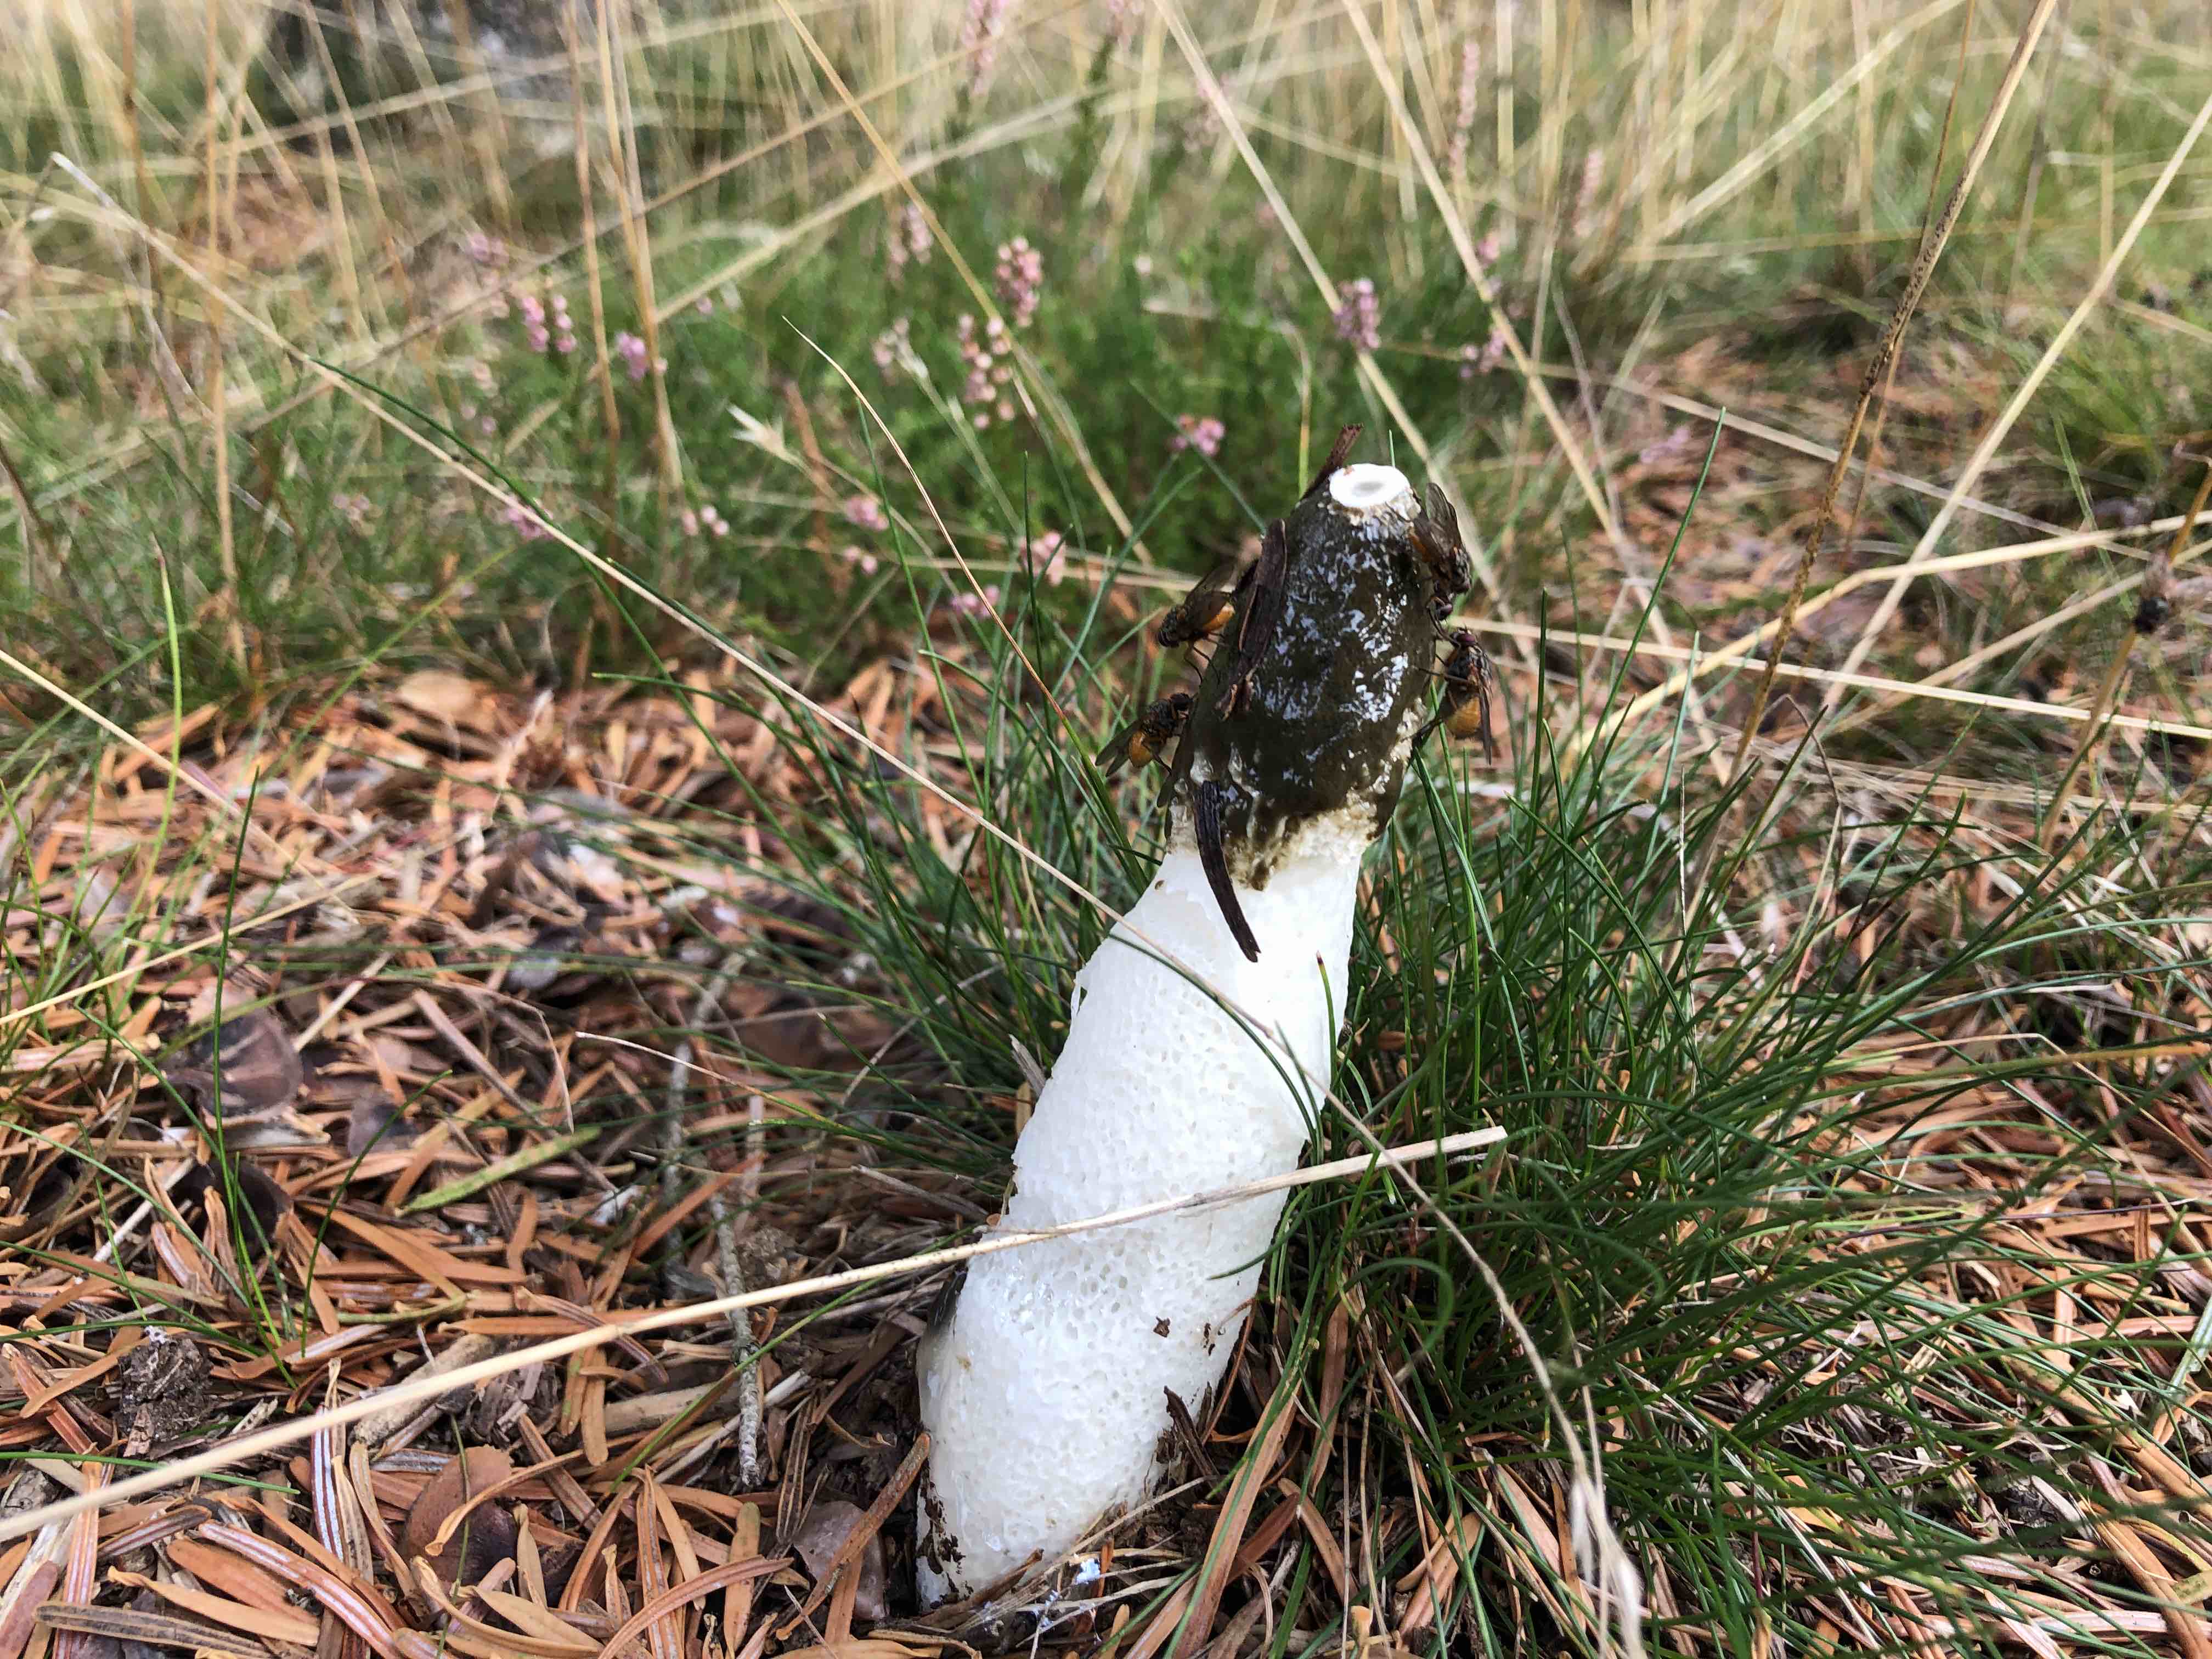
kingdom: Fungi
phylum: Basidiomycota
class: Agaricomycetes
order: Phallales
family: Phallaceae
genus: Phallus
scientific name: Phallus impudicus
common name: almindelig stinksvamp
